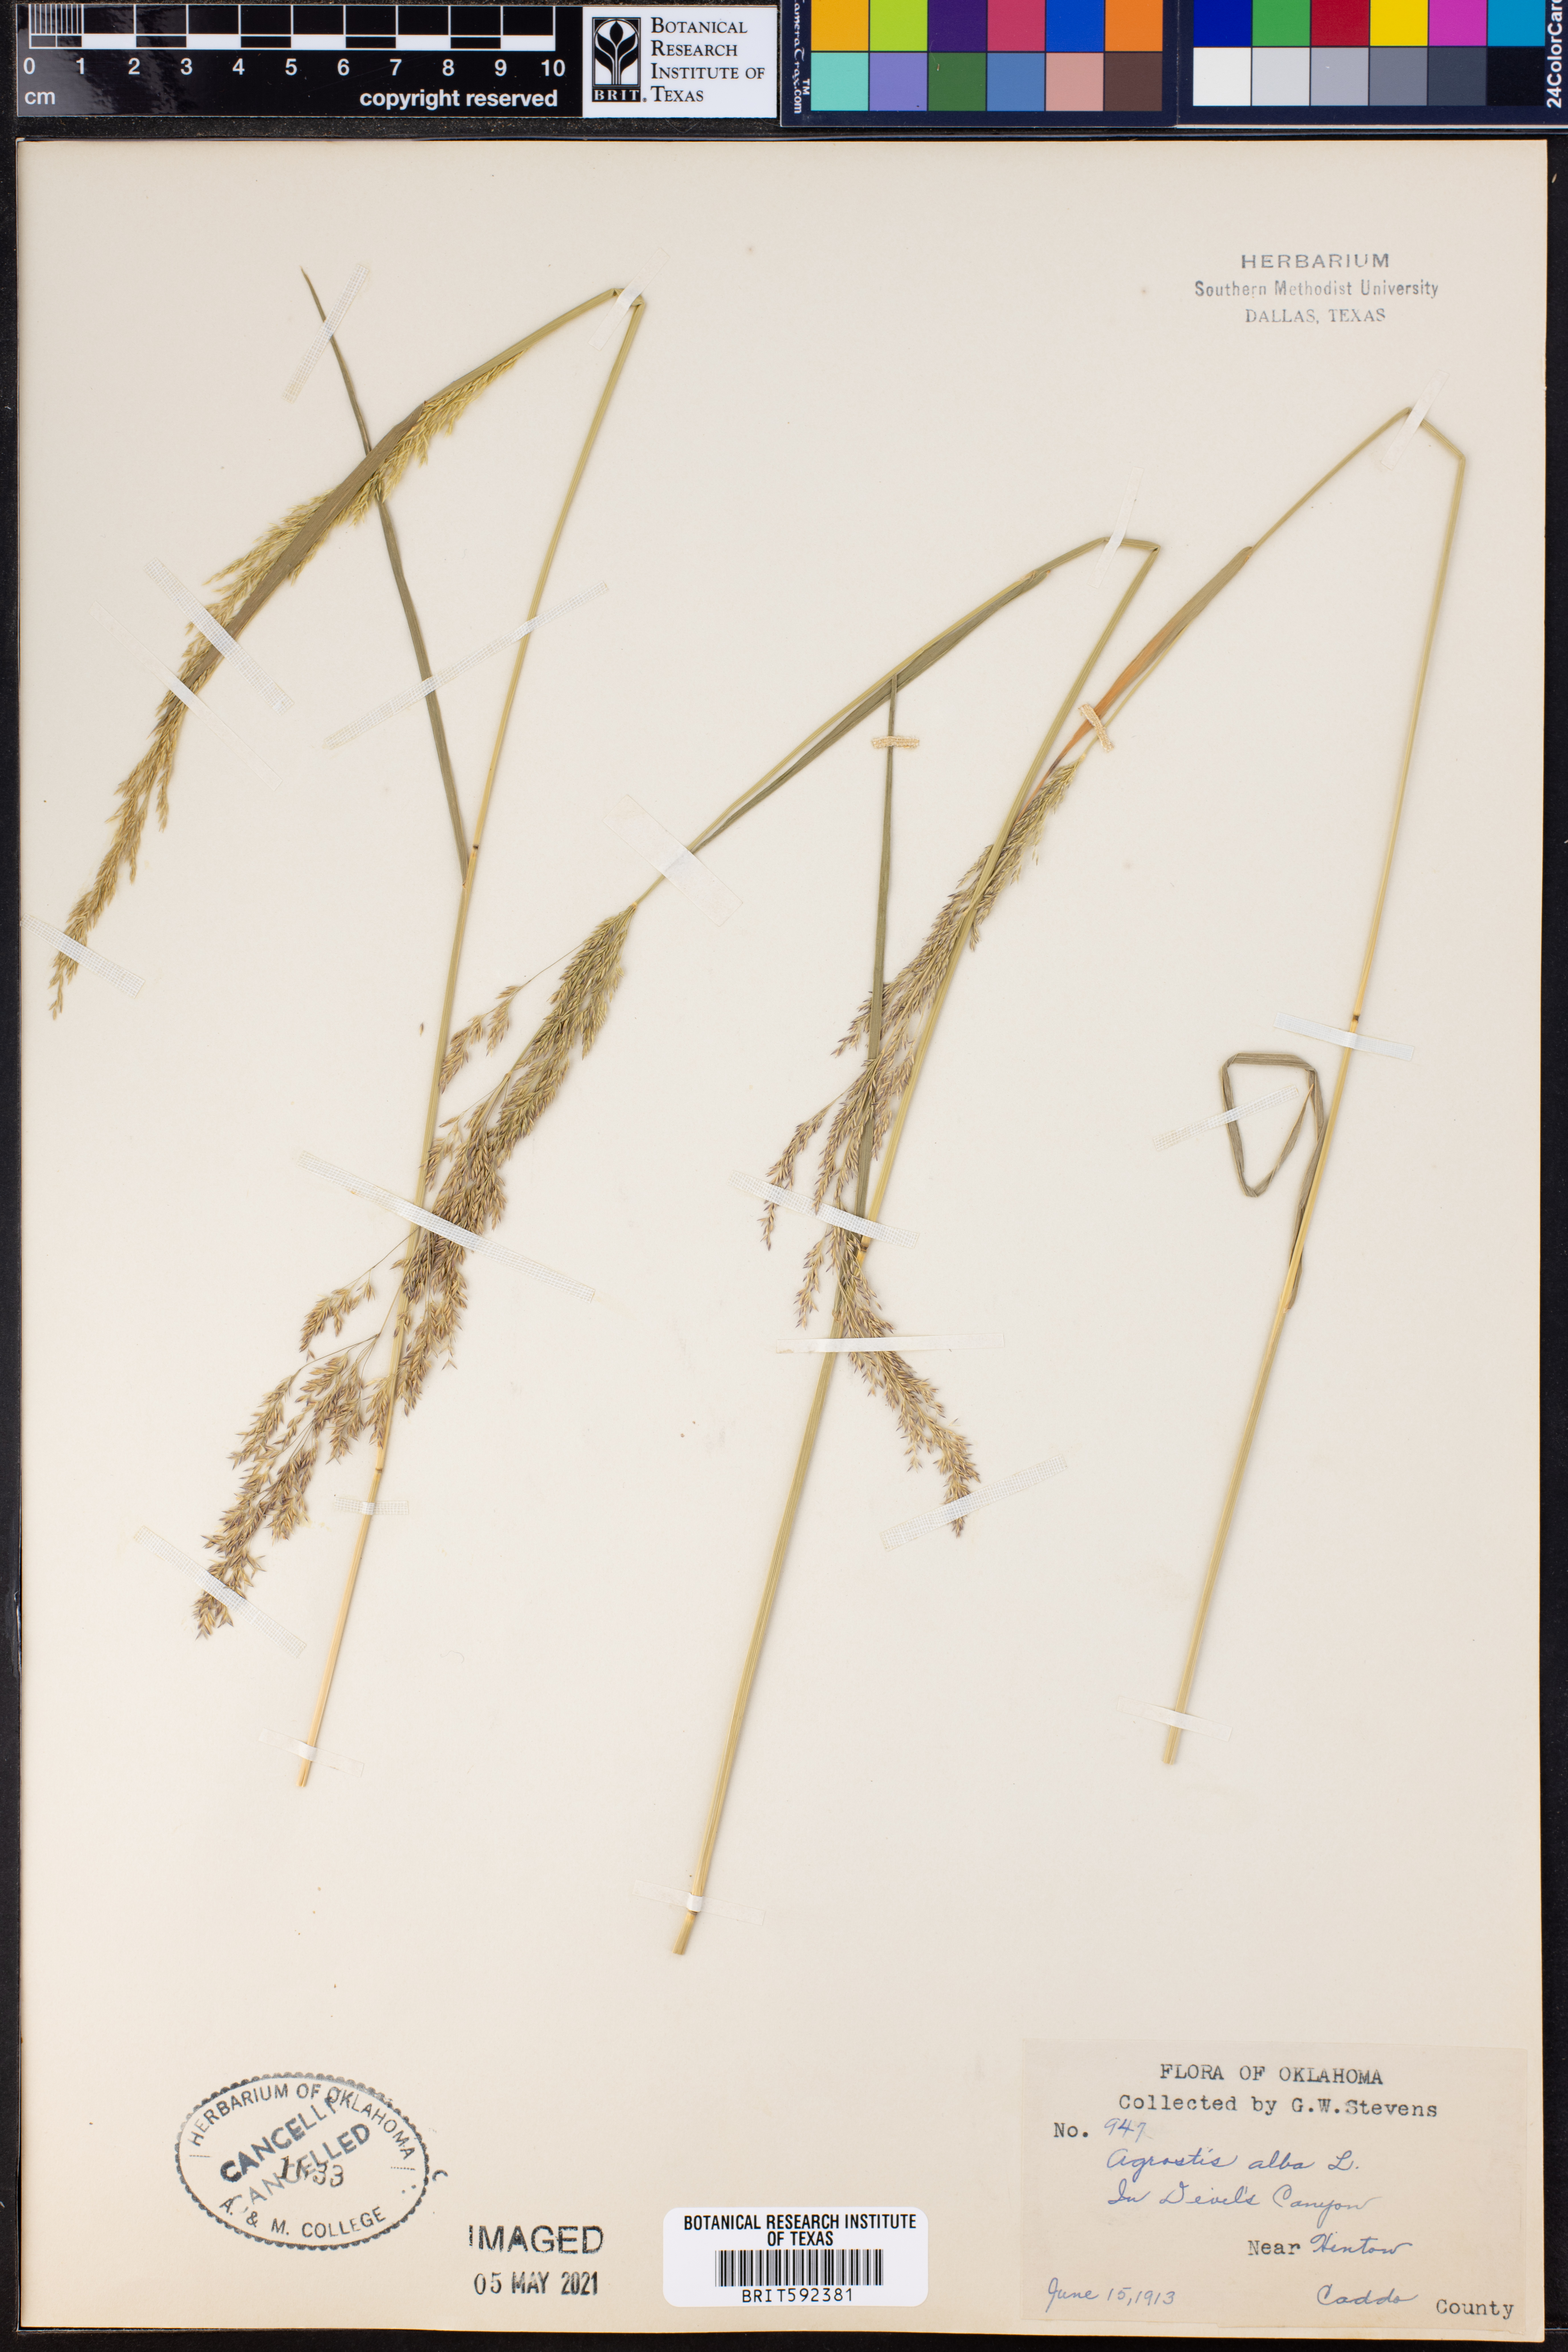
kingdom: Plantae
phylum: Tracheophyta
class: Liliopsida
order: Poales
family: Poaceae
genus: Agrostis
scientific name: Agrostis alba
